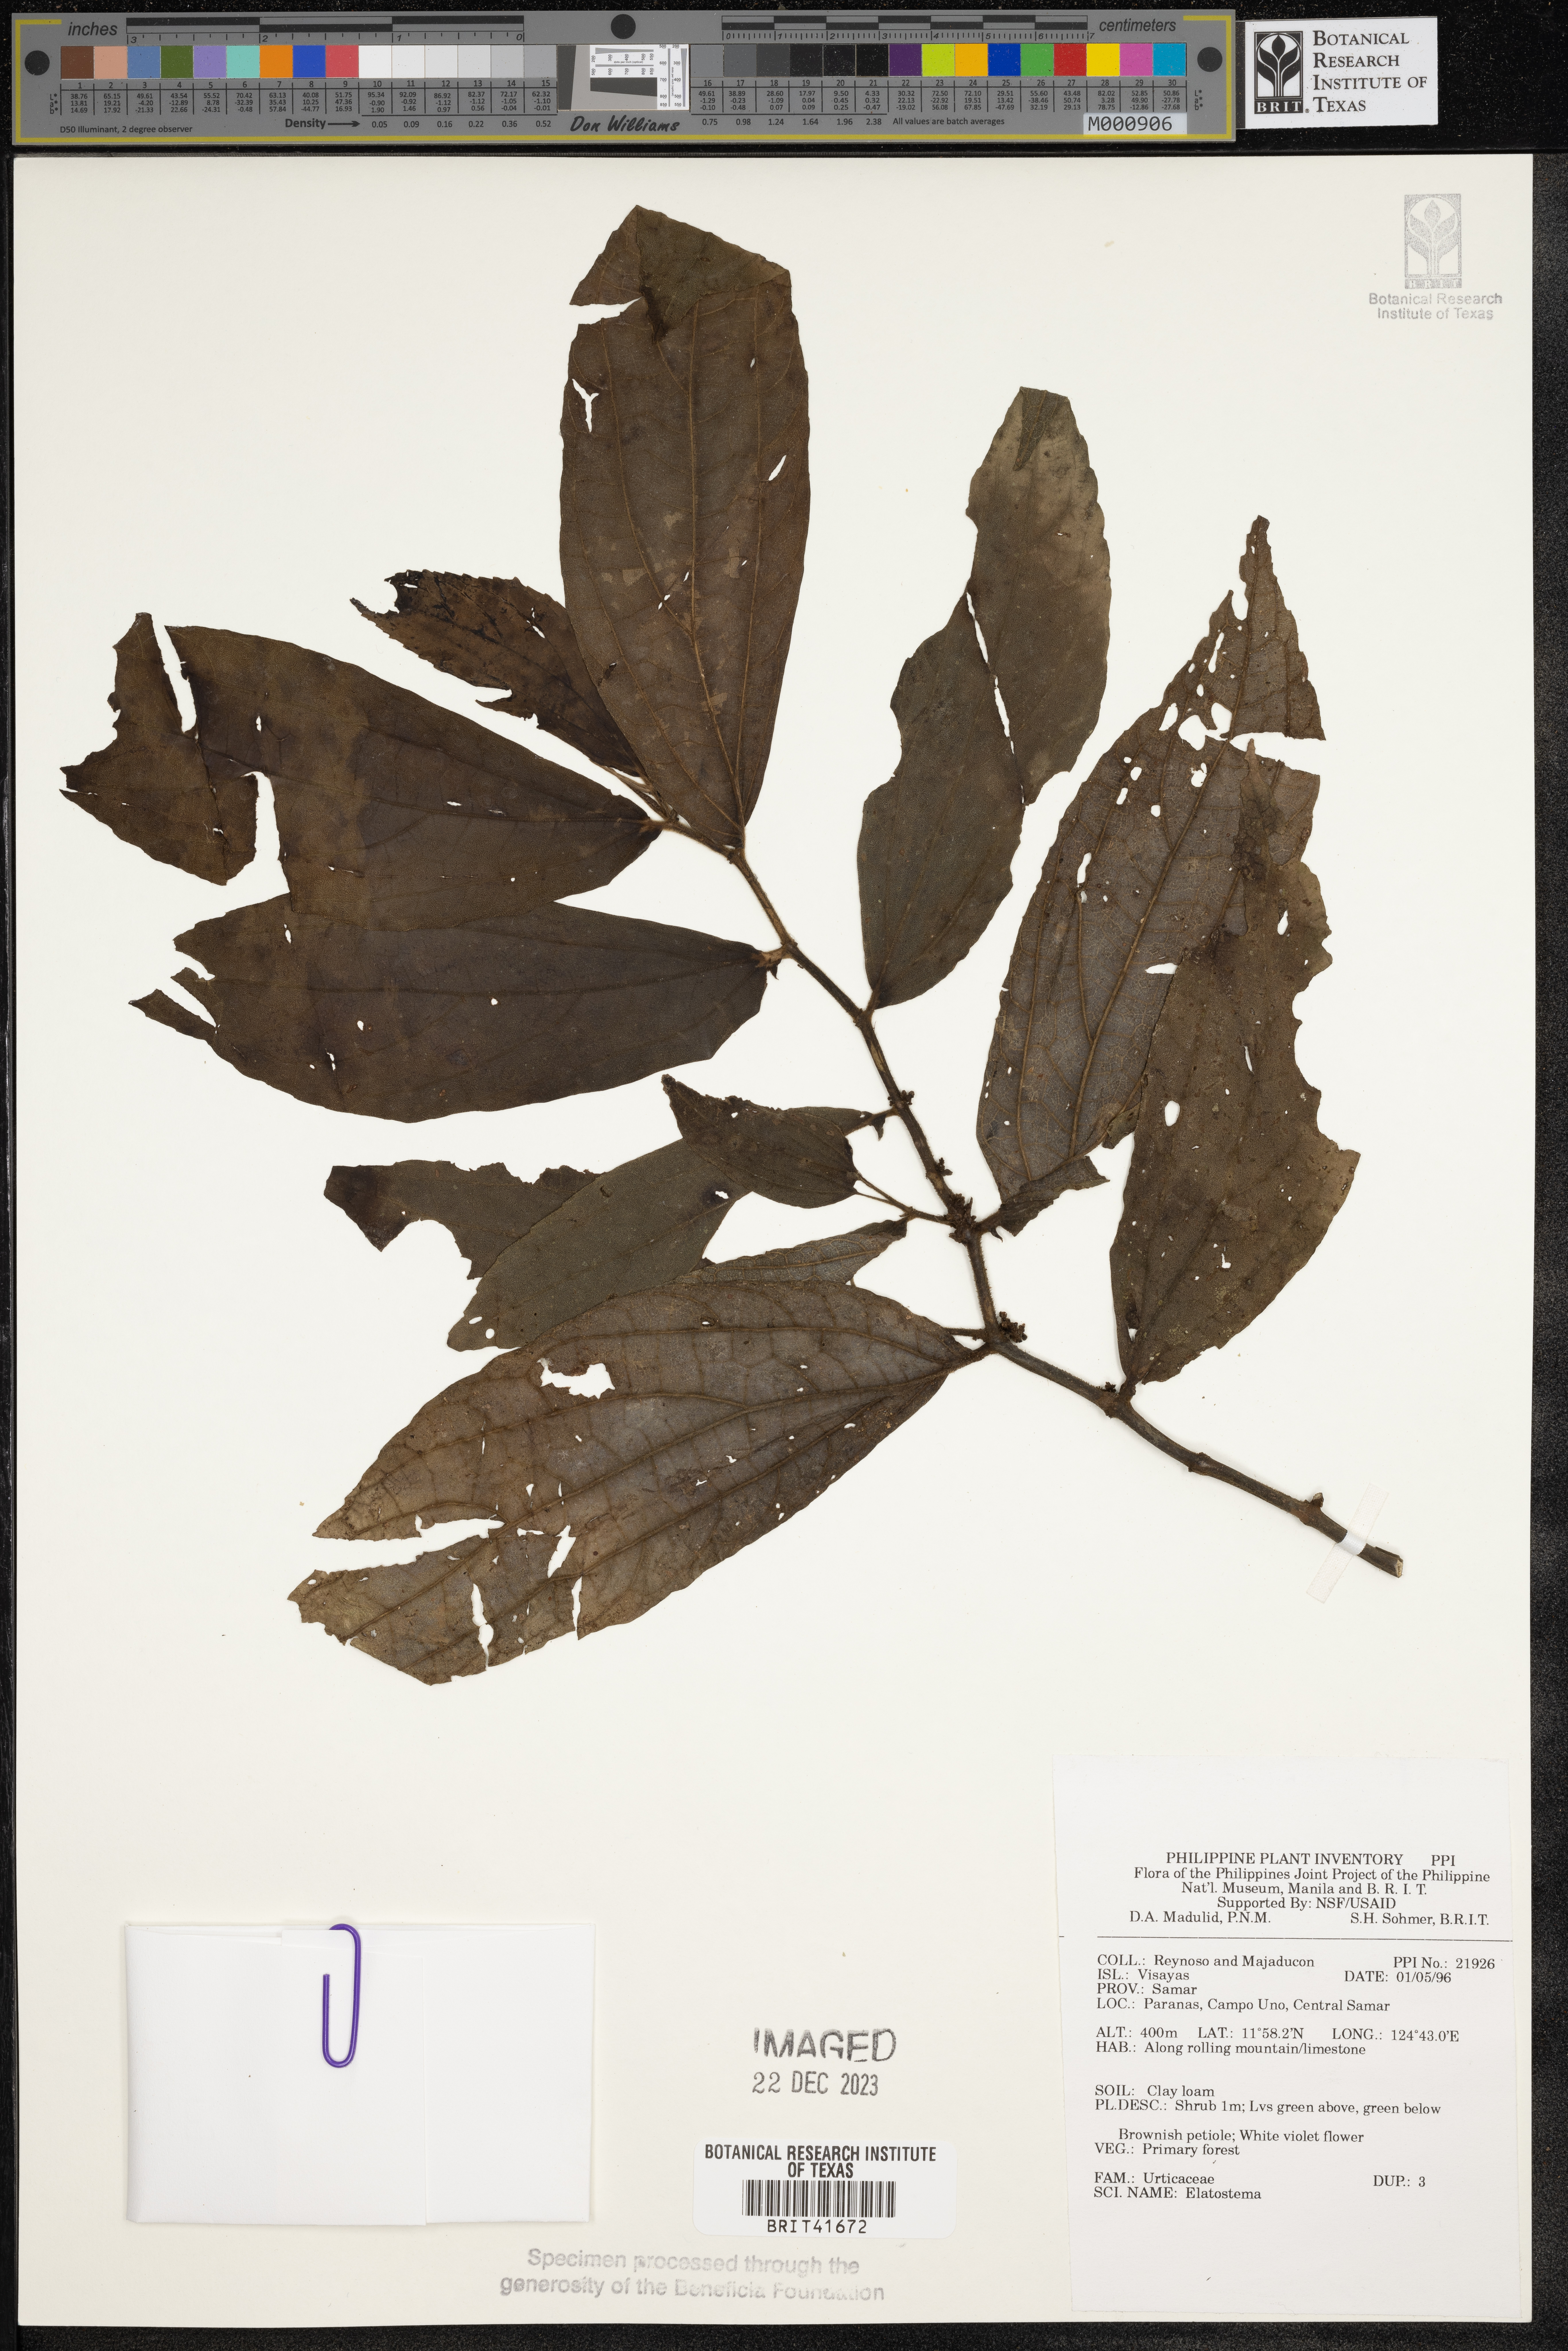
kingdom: Plantae
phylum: Tracheophyta
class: Magnoliopsida
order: Rosales
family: Urticaceae
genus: Elatostema
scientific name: Elatostema
